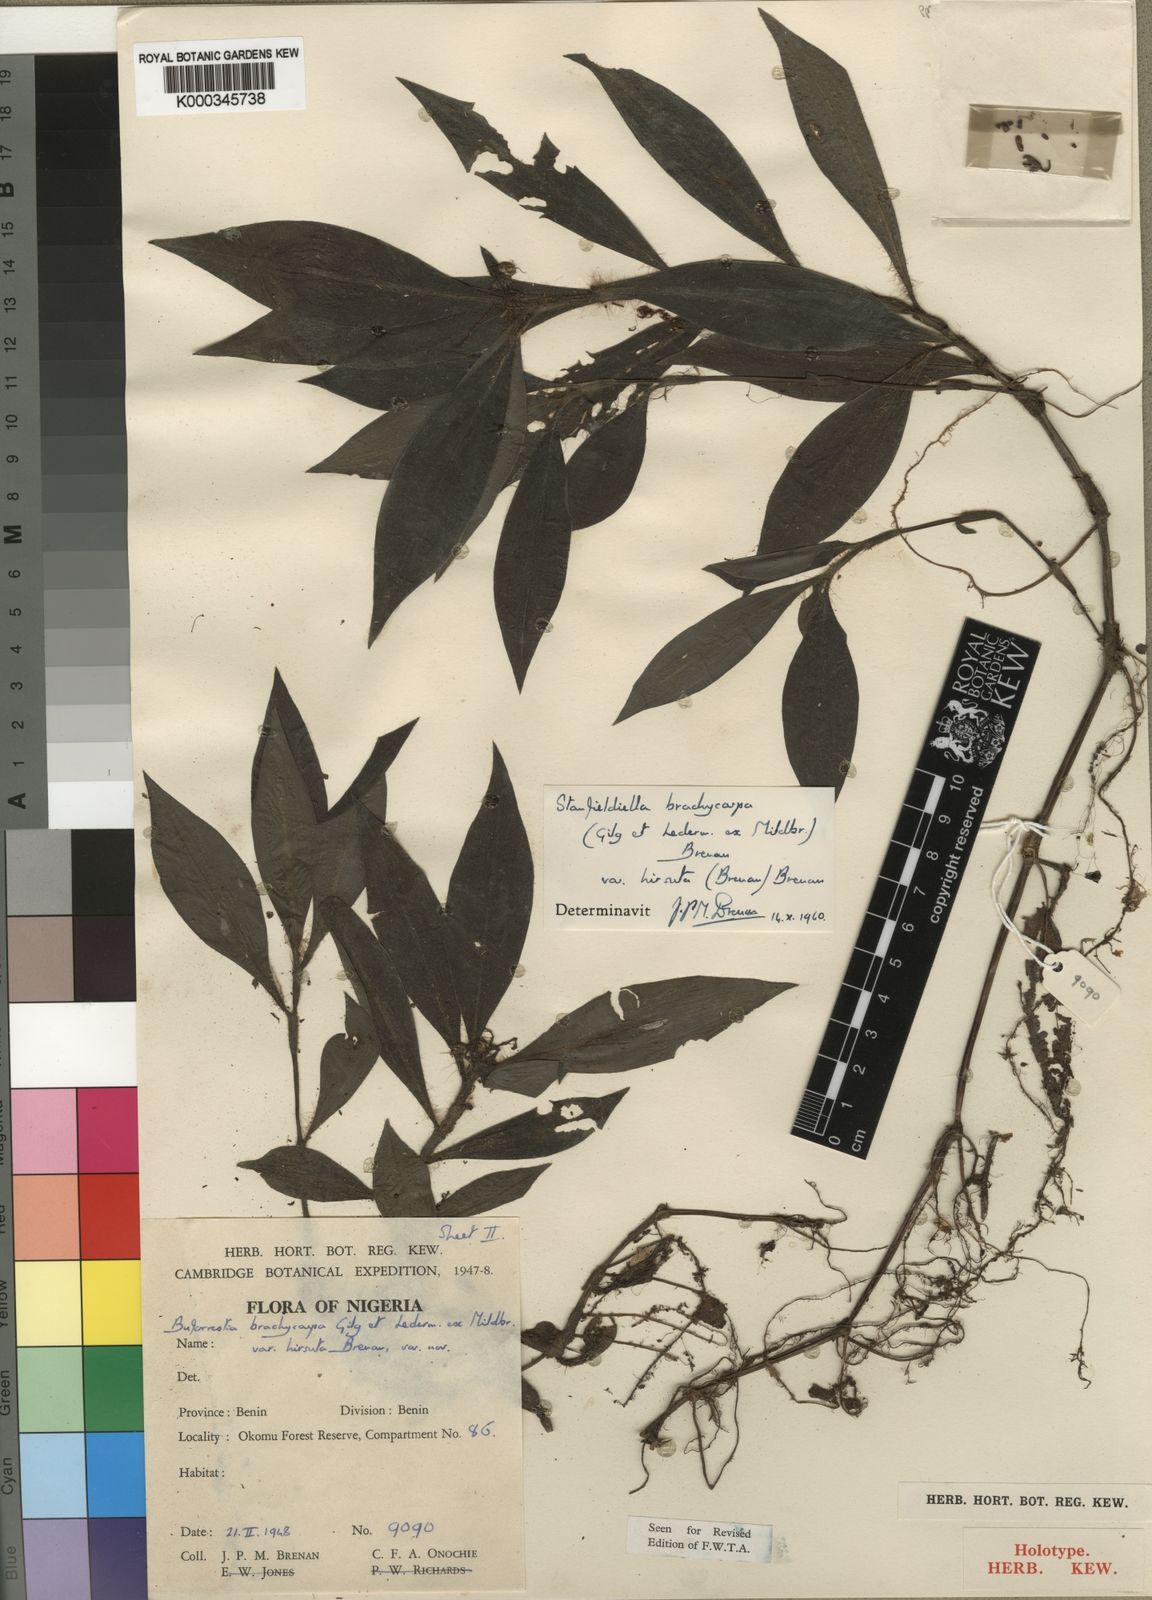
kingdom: Plantae
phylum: Tracheophyta
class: Liliopsida
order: Commelinales
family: Commelinaceae
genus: Stanfieldiella
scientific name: Stanfieldiella brachycarpa
